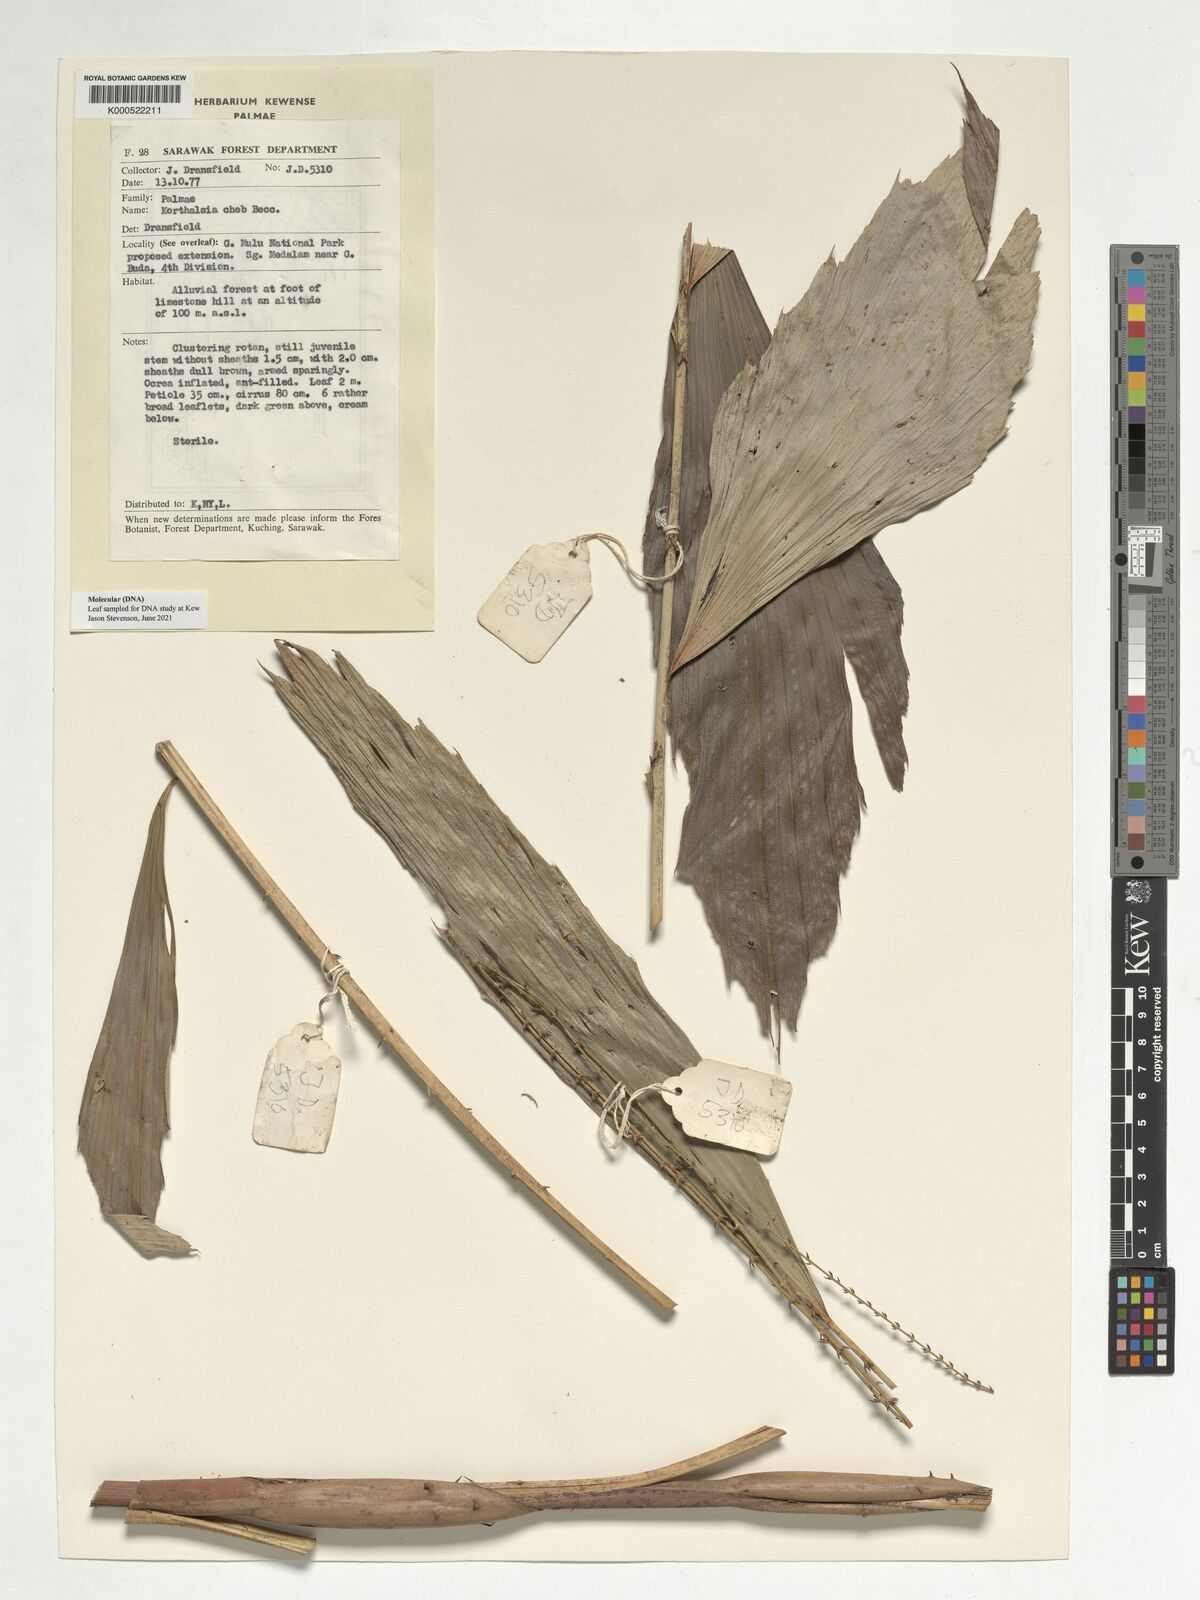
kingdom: Plantae
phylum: Tracheophyta
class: Liliopsida
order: Arecales
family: Arecaceae
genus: Korthalsia
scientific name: Korthalsia cheb
